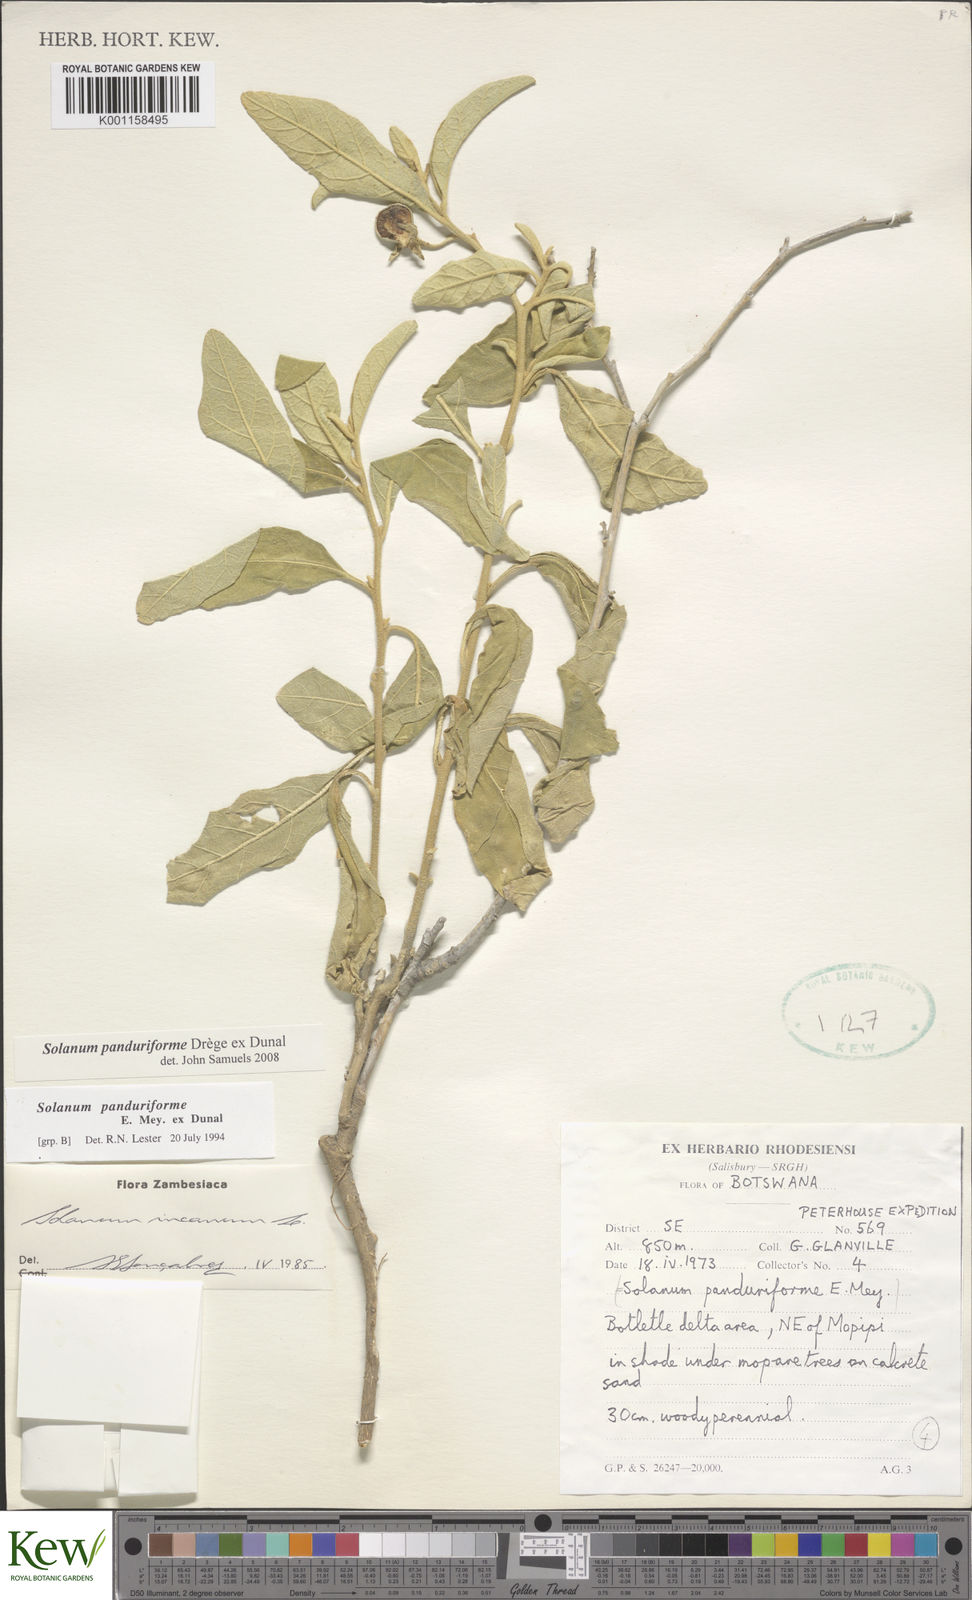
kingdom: Plantae
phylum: Tracheophyta
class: Magnoliopsida
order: Solanales
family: Solanaceae
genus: Solanum
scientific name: Solanum campylacanthum
